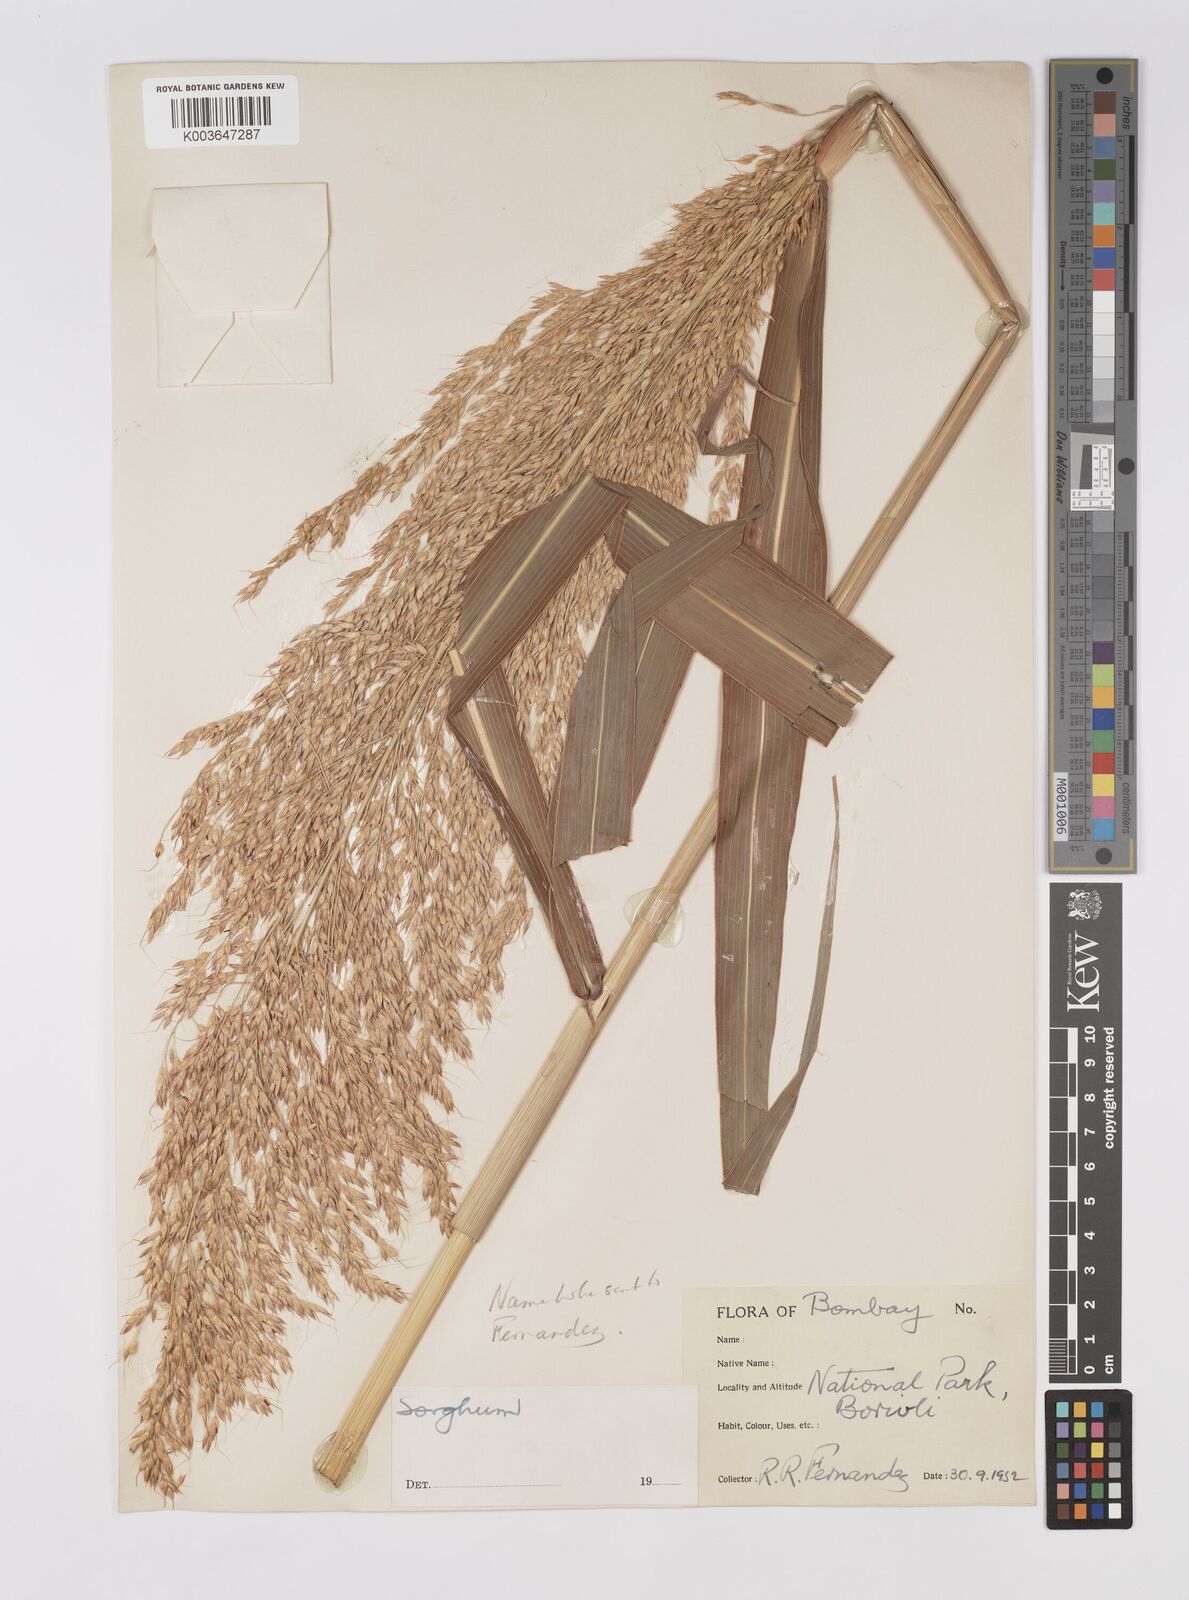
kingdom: Plantae
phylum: Tracheophyta
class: Liliopsida
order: Poales
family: Poaceae
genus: Sorghum
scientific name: Sorghum halepense
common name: Johnson-grass
